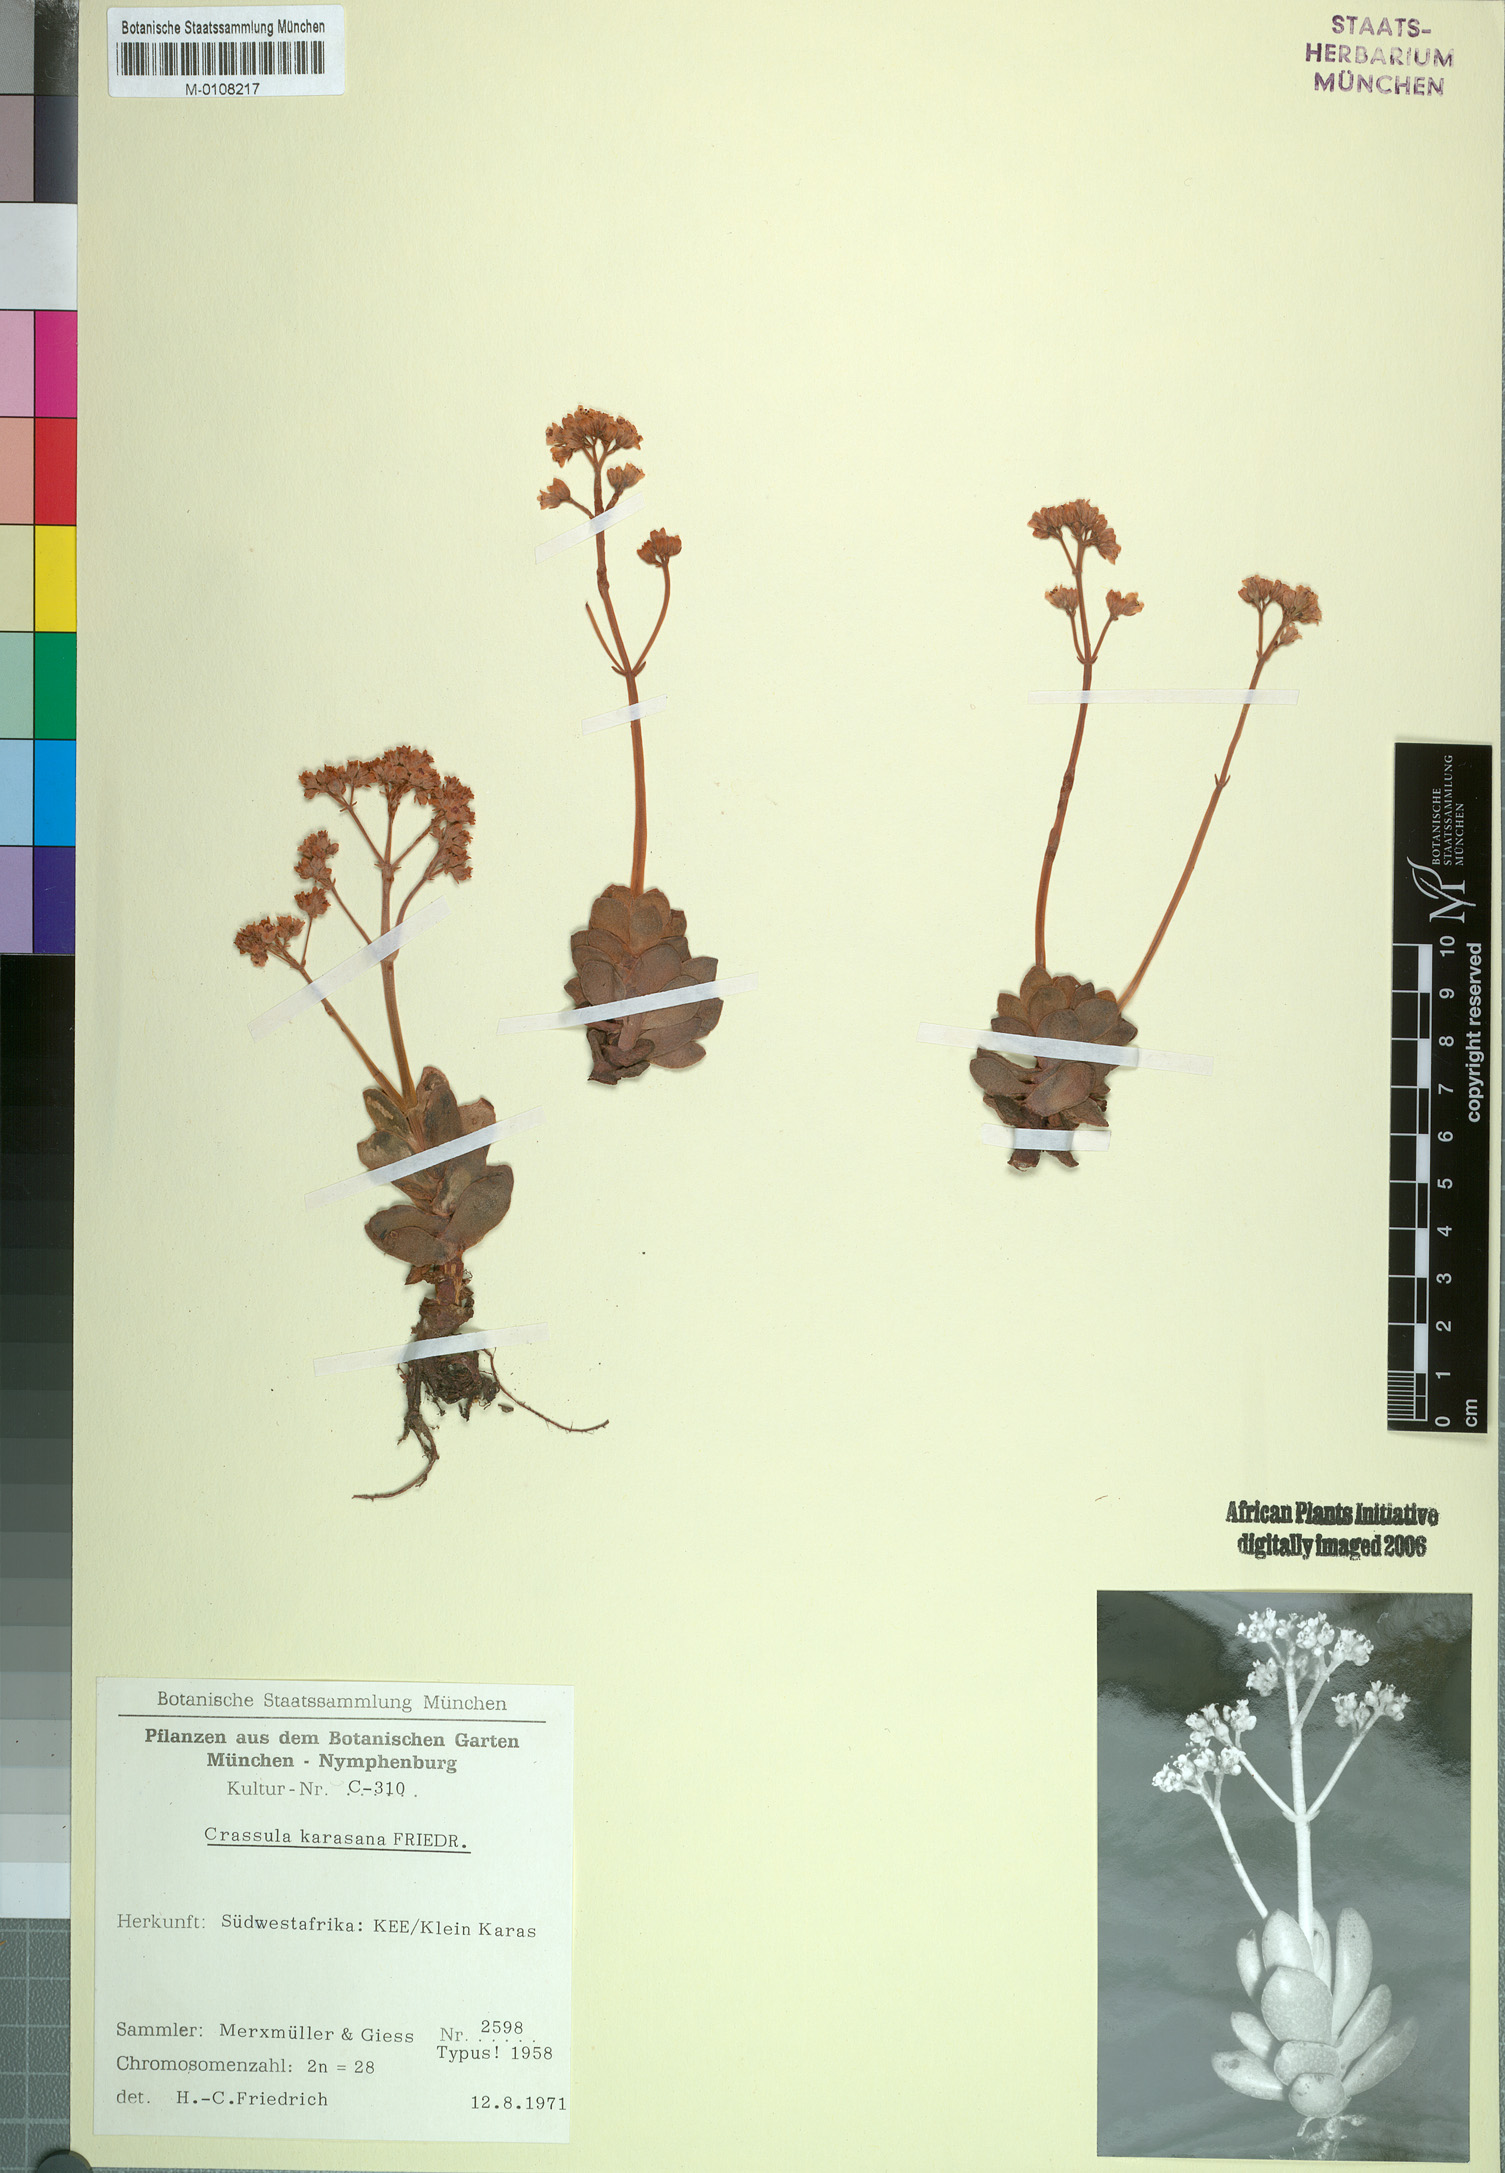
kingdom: Plantae
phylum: Tracheophyta
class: Magnoliopsida
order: Saxifragales
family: Crassulaceae
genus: Crassula
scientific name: Crassula ausensis
